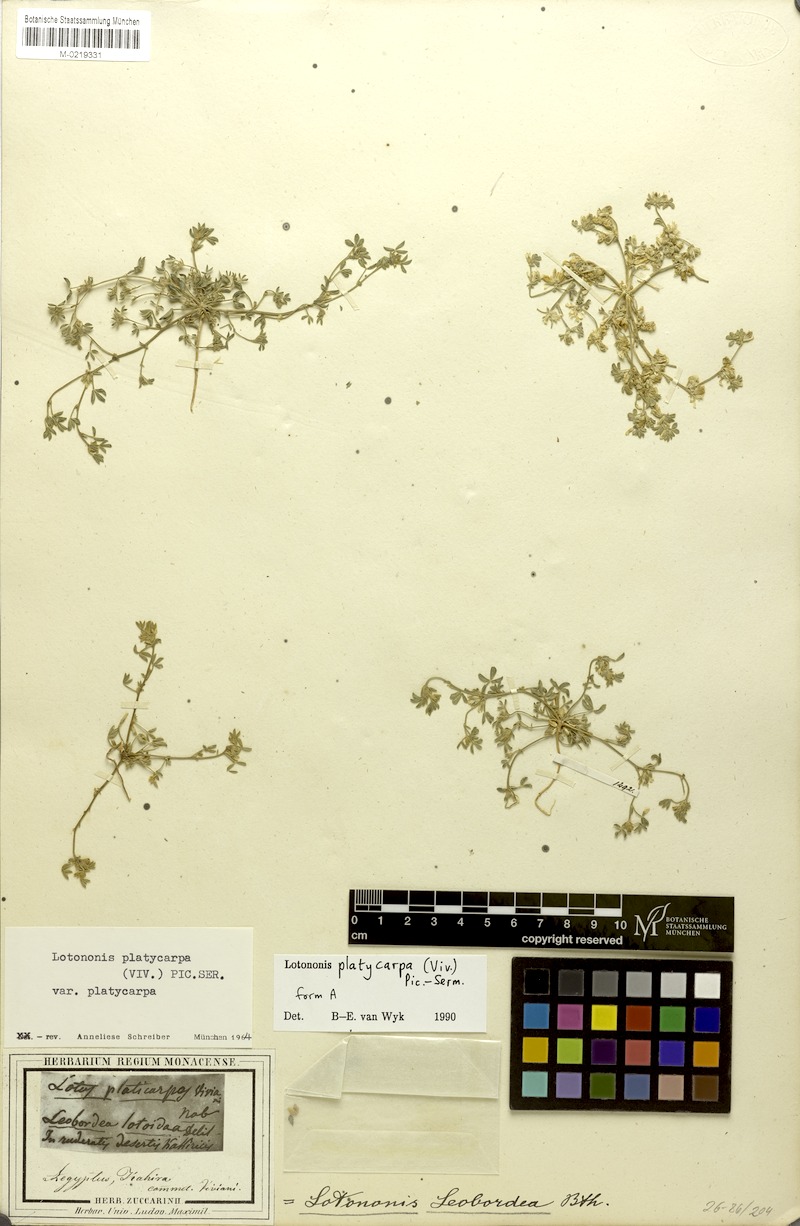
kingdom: Plantae
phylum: Tracheophyta
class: Magnoliopsida
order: Fabales
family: Fabaceae
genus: Leobordea
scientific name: Leobordea platycarpa
